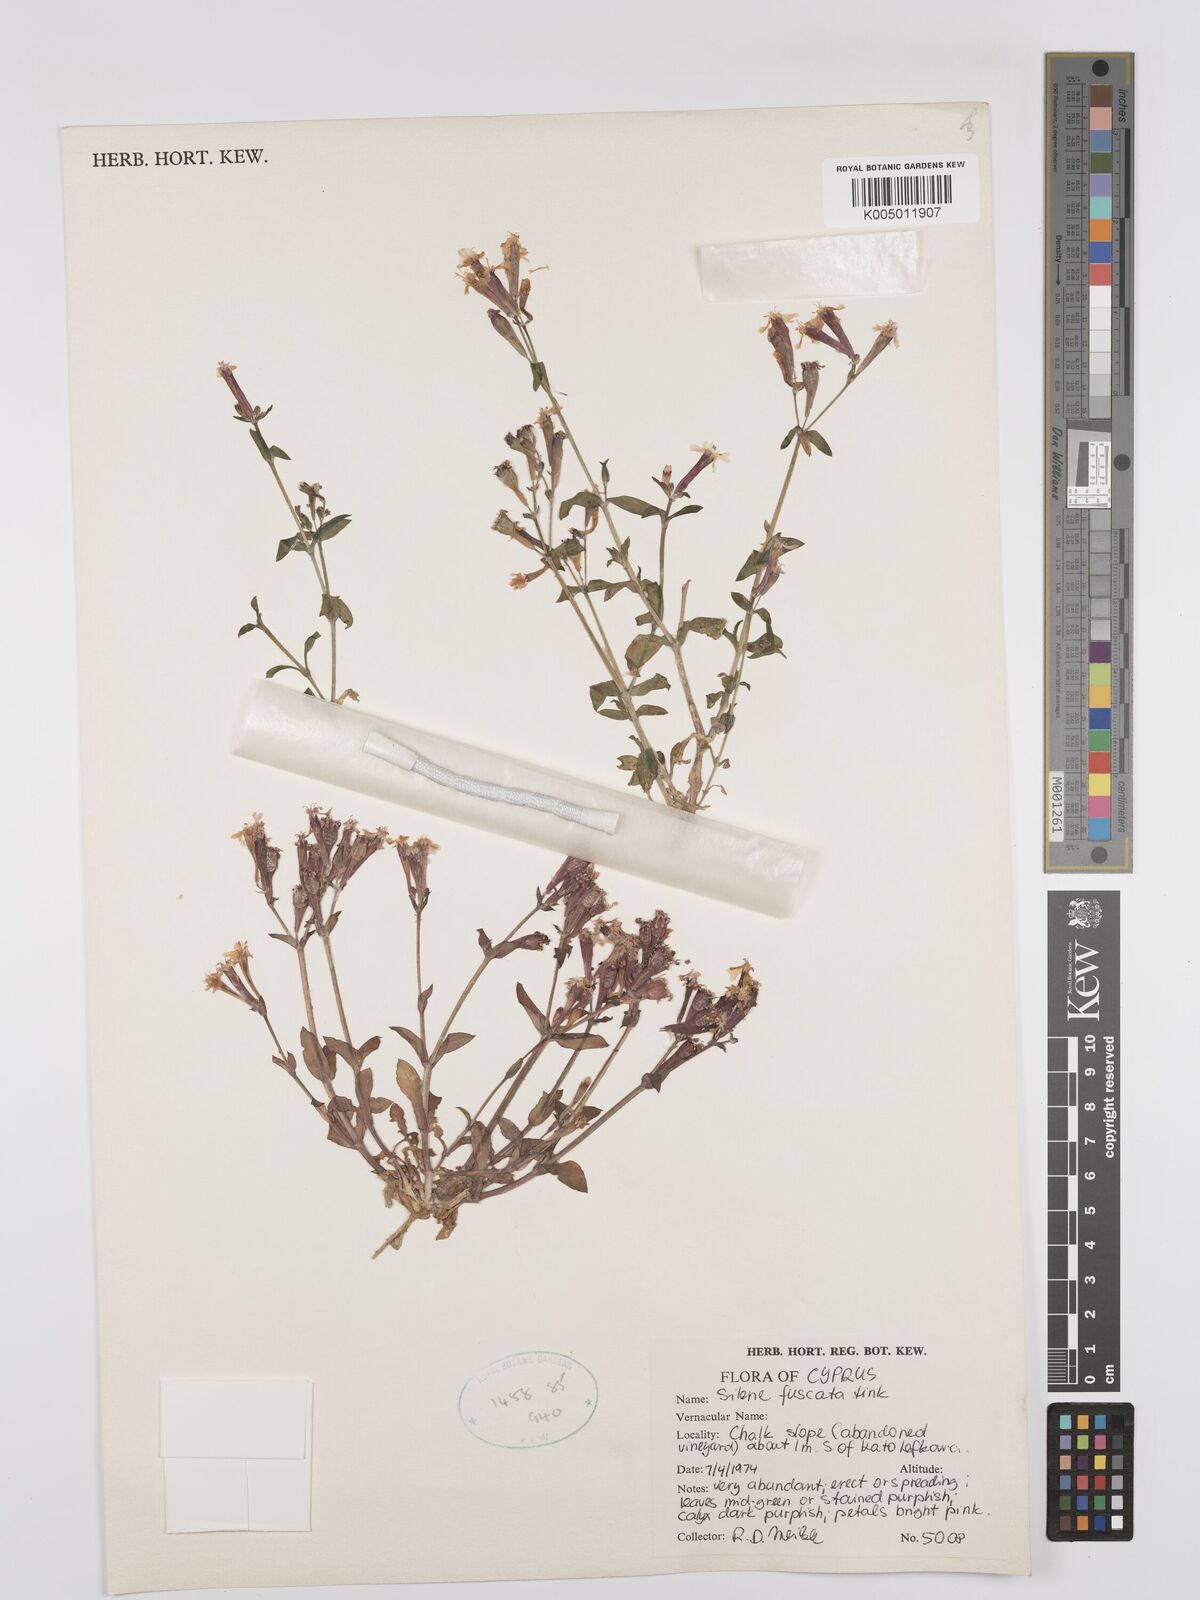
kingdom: Plantae
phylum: Tracheophyta
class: Magnoliopsida
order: Caryophyllales
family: Caryophyllaceae
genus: Silene
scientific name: Silene fuscata
